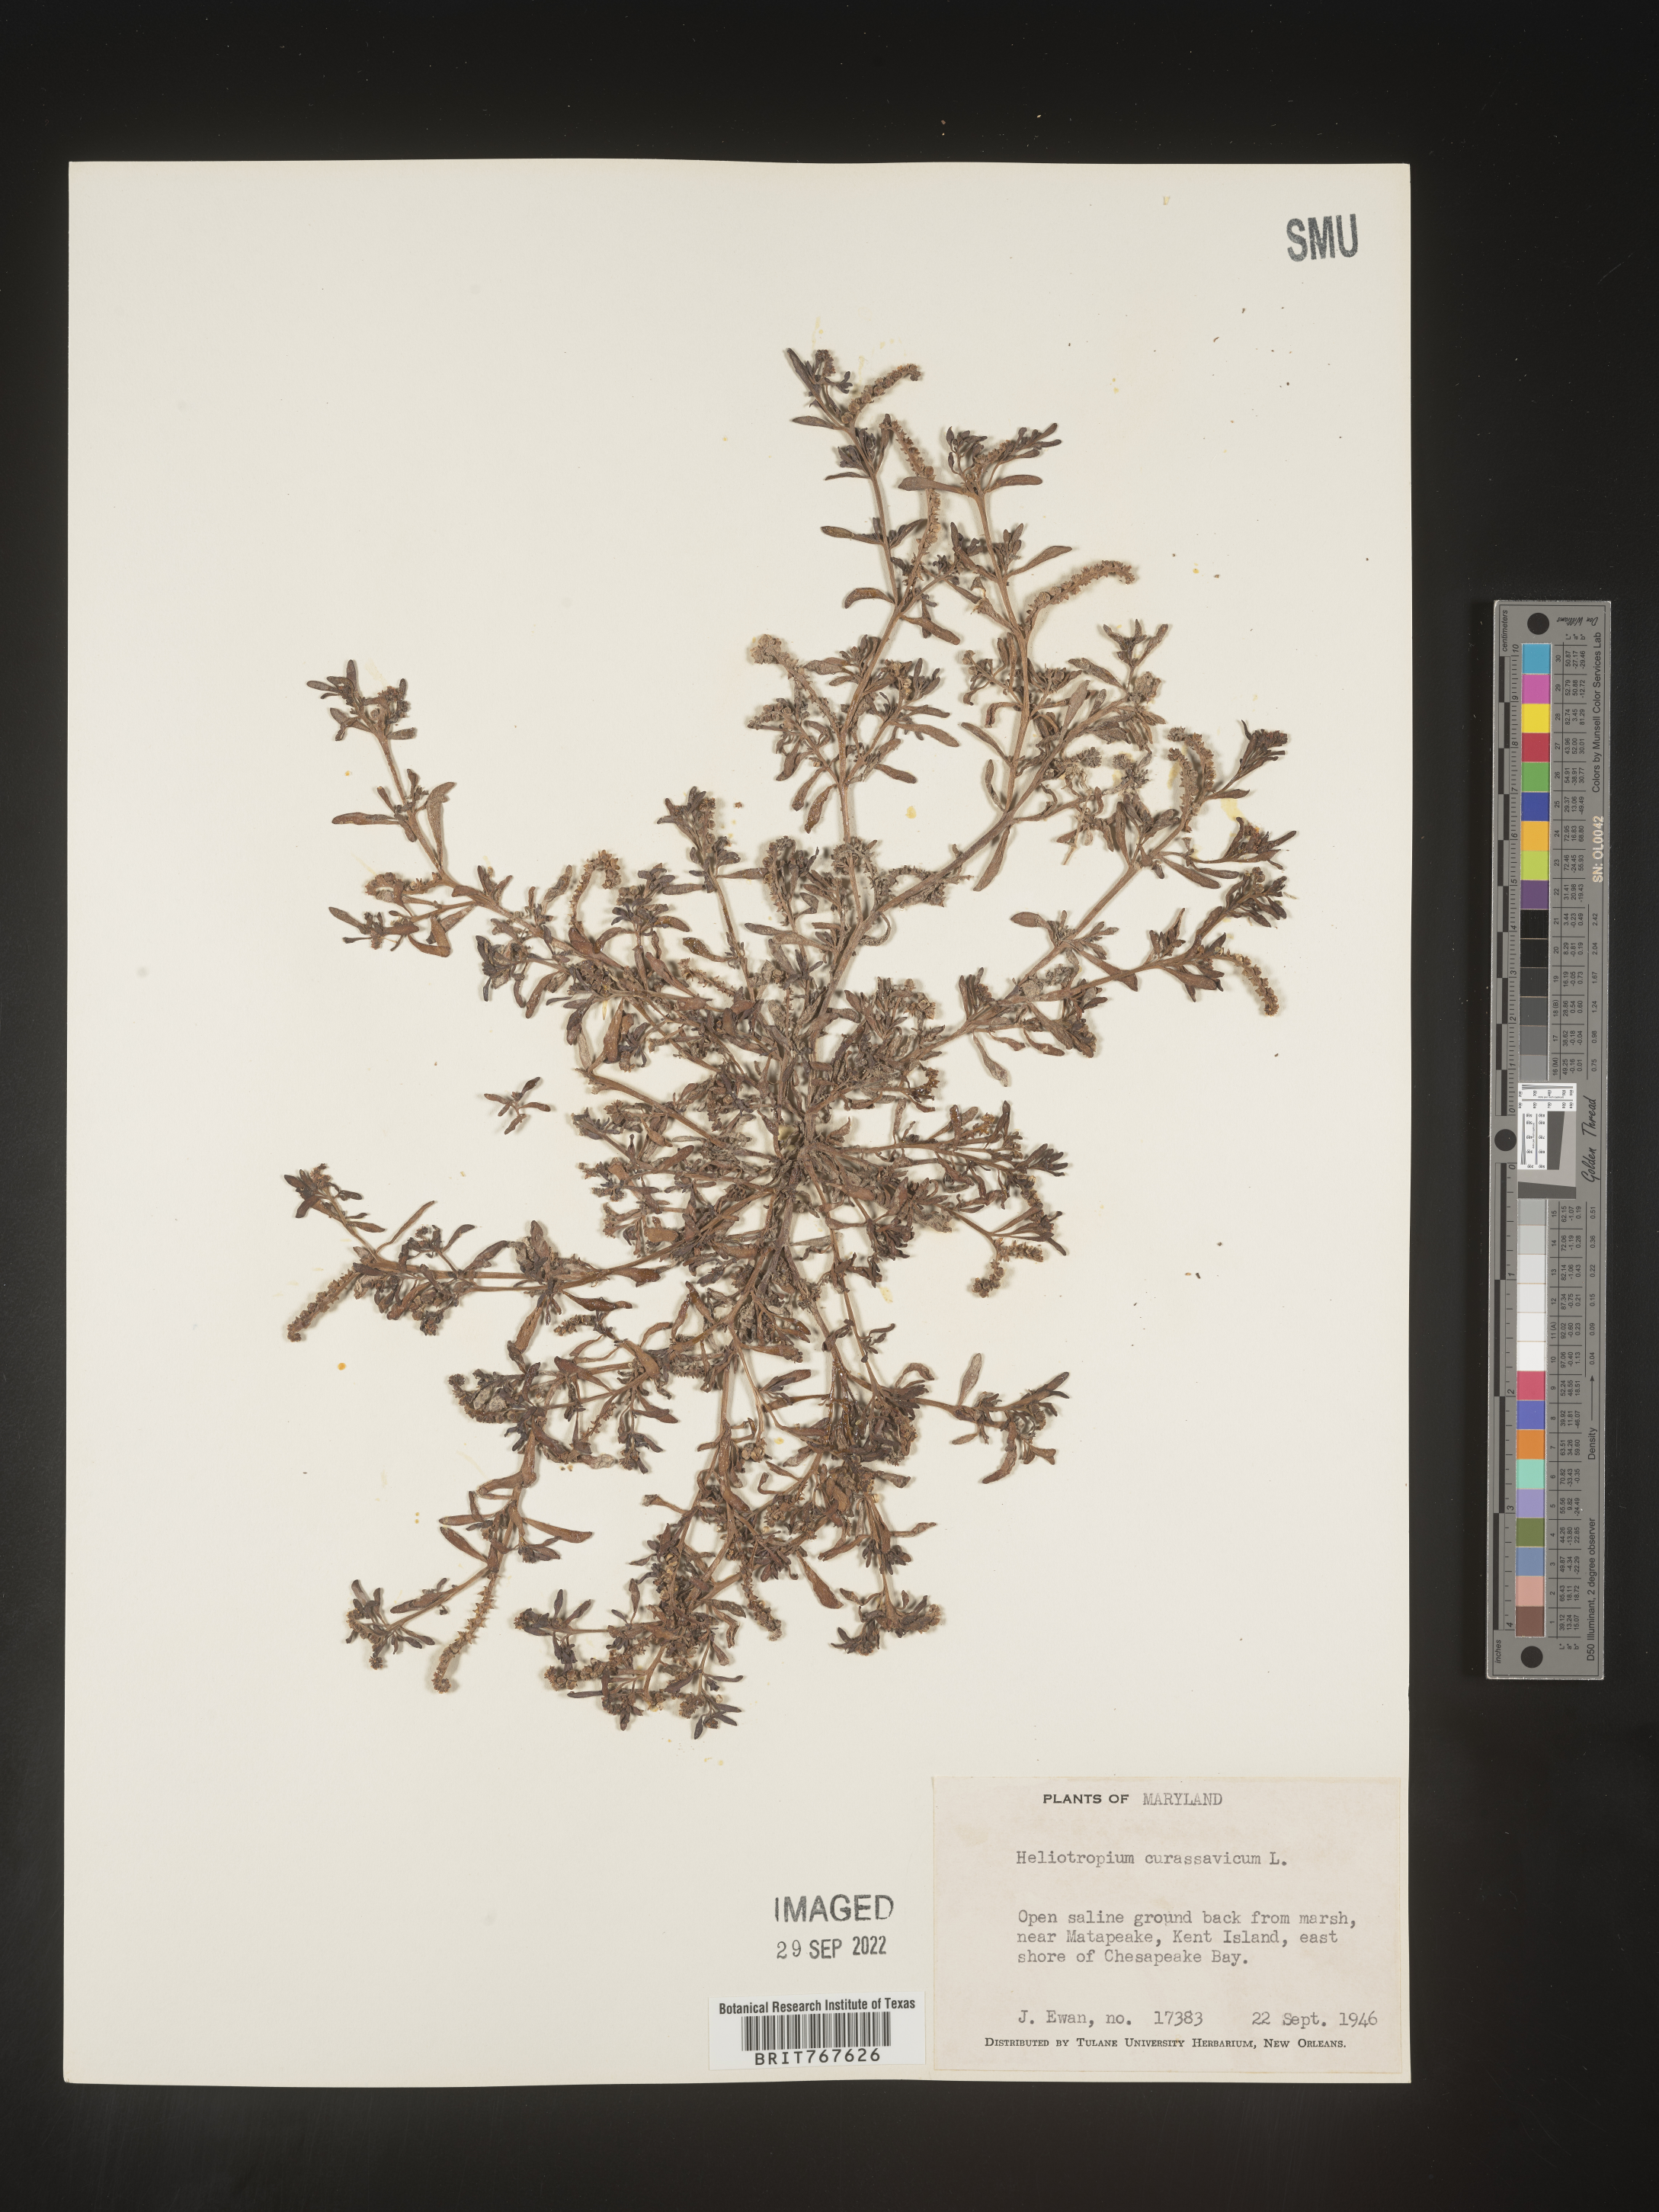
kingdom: Plantae
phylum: Tracheophyta
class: Magnoliopsida
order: Boraginales
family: Heliotropiaceae
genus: Heliotropium
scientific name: Heliotropium curassavicum
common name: Seaside heliotrope
